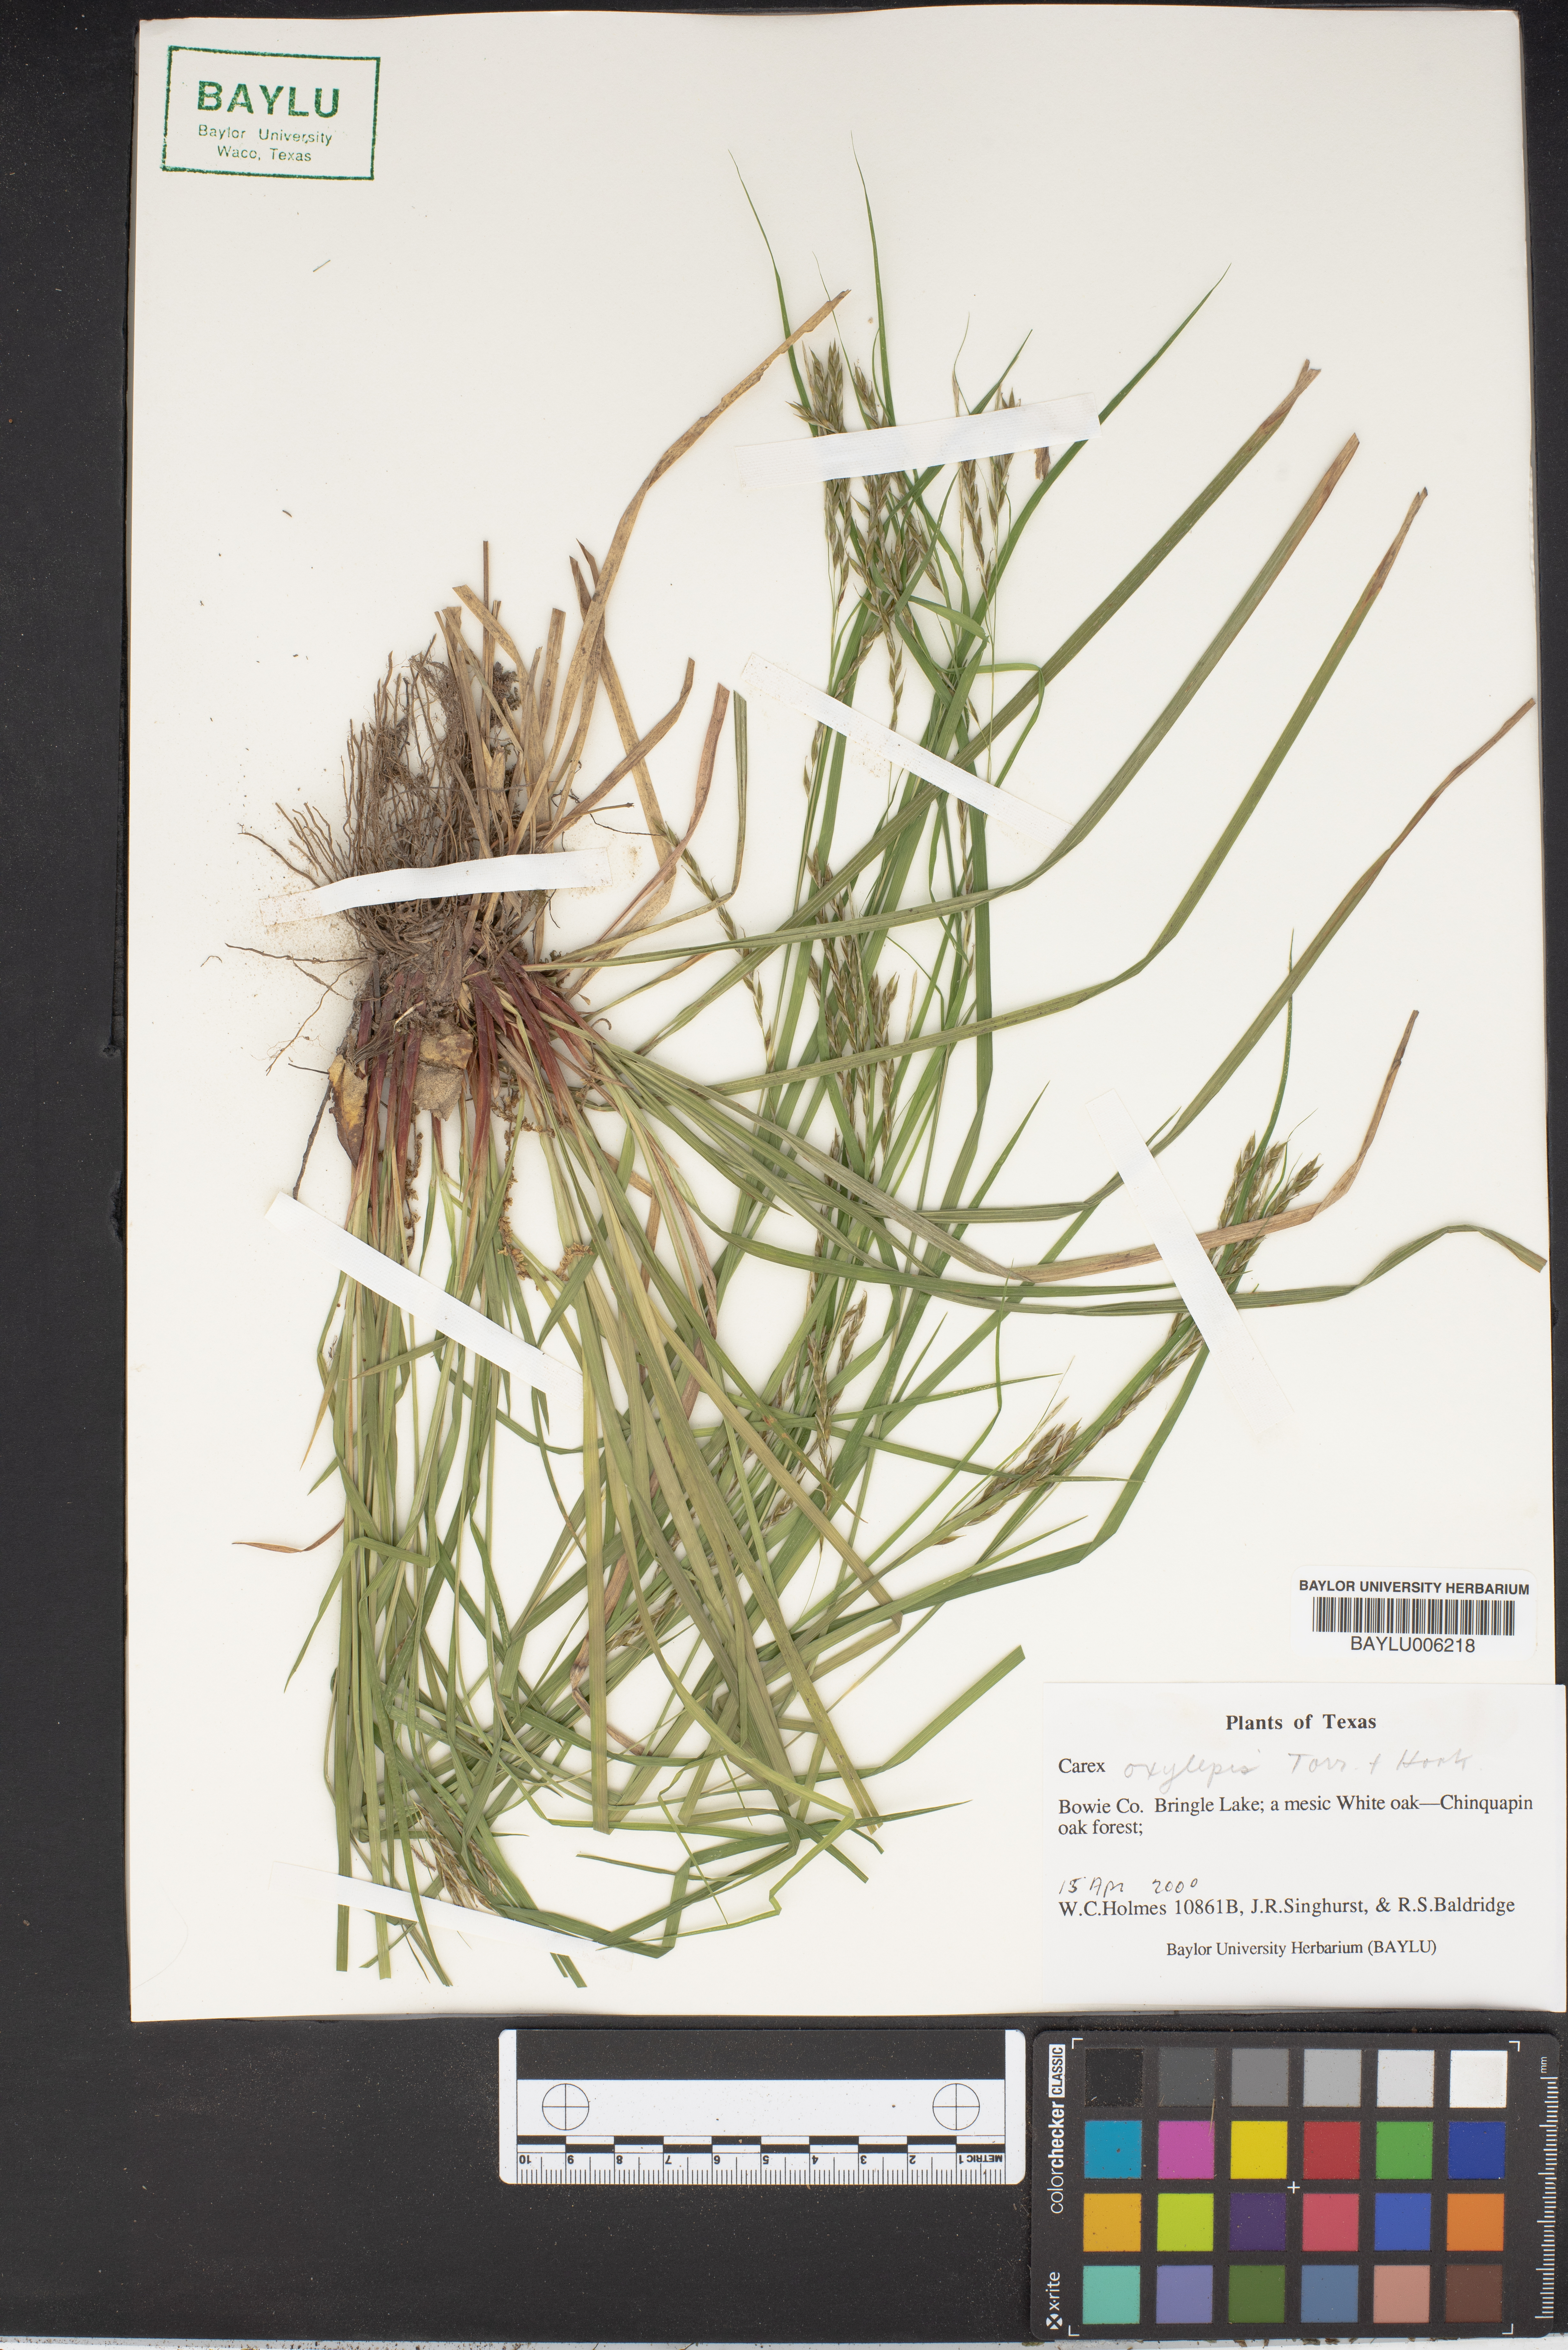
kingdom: Plantae
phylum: Tracheophyta
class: Liliopsida
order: Poales
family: Cyperaceae
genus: Carex
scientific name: Carex oxylepis
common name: Sharpscale sedge
